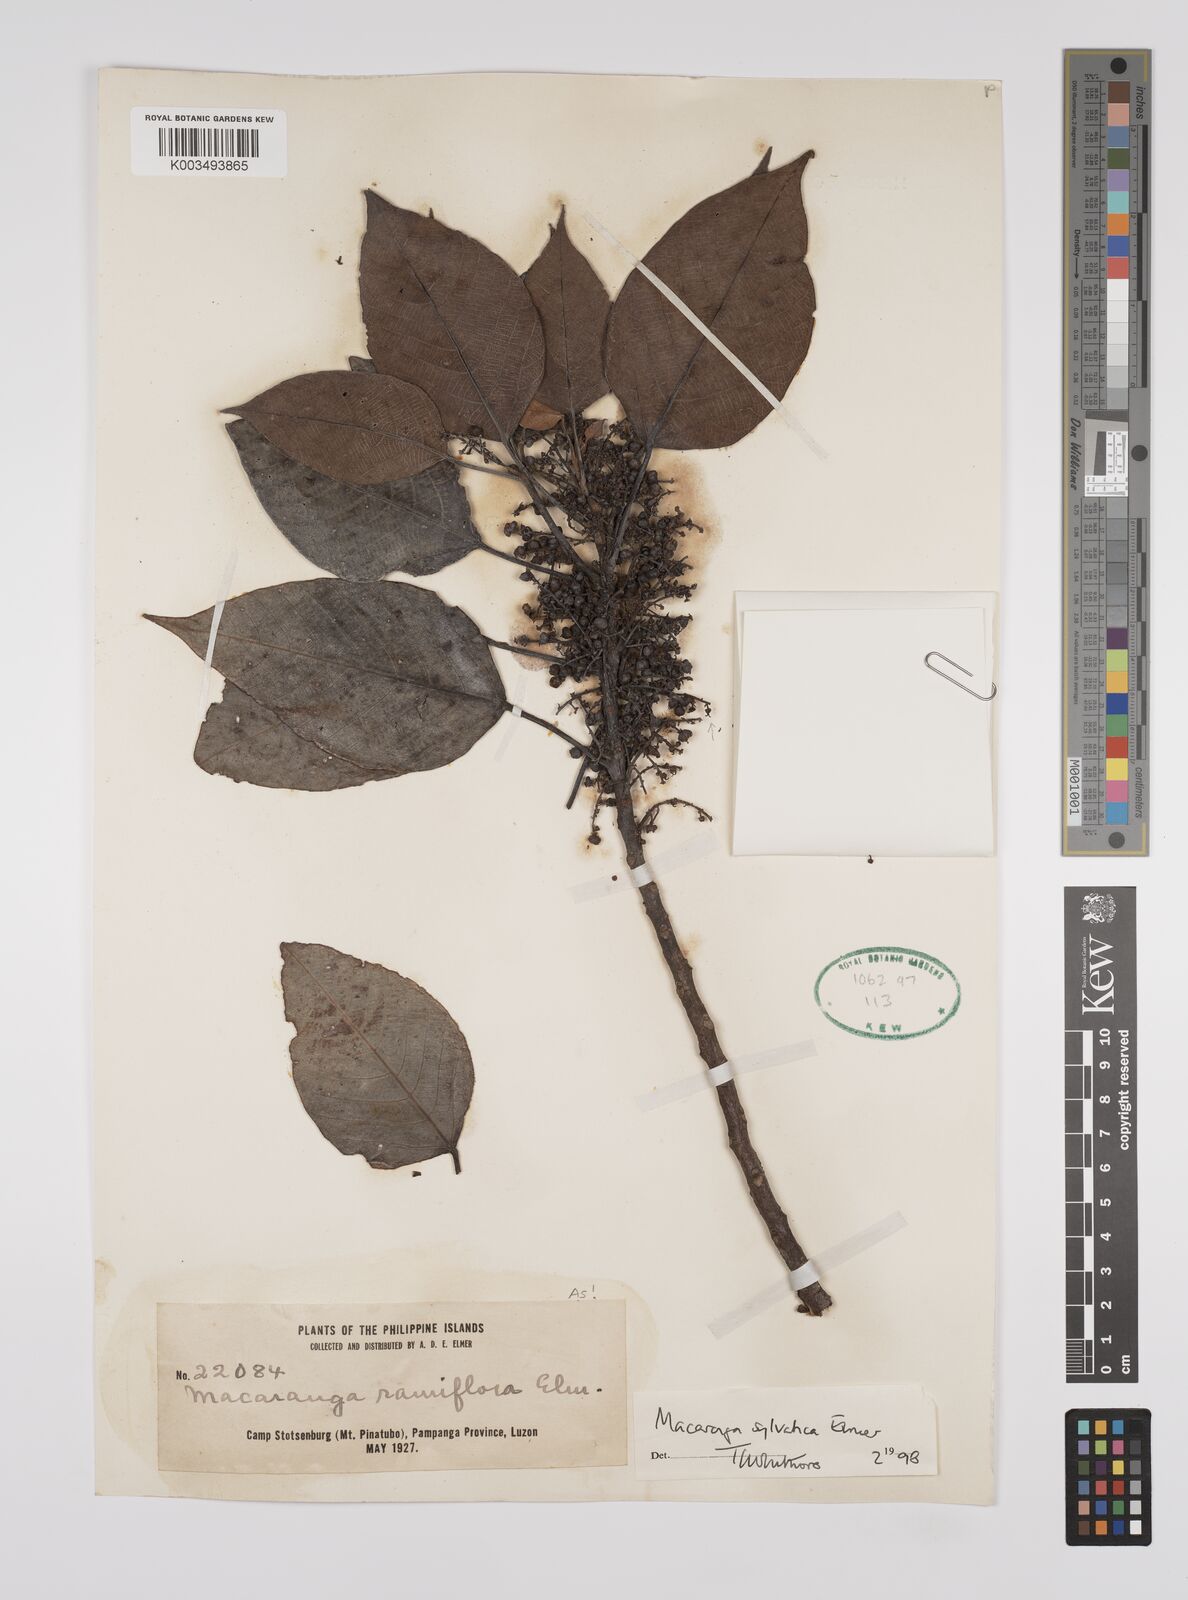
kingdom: Plantae
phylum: Tracheophyta
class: Magnoliopsida
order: Malpighiales
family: Euphorbiaceae
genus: Macaranga
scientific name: Macaranga sylvatica
